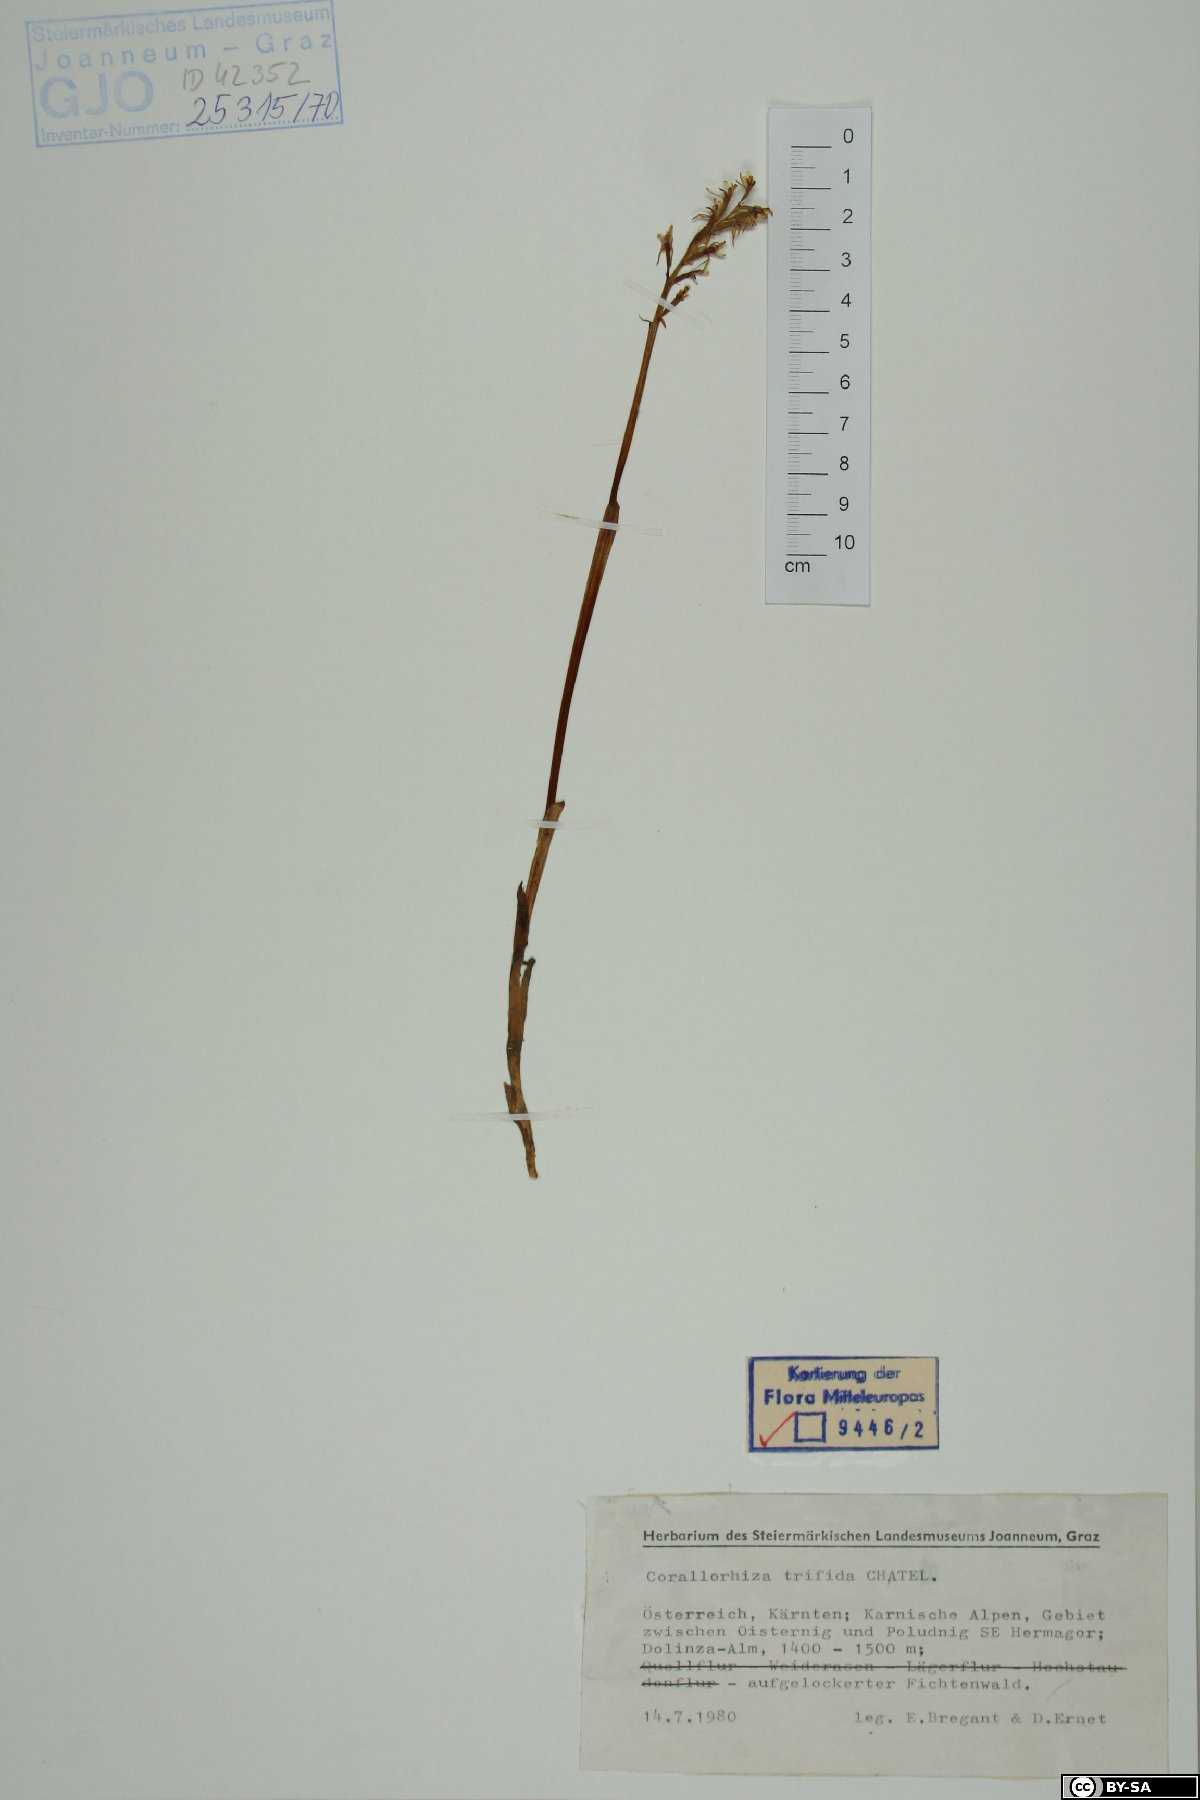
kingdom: Plantae
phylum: Tracheophyta
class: Liliopsida
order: Asparagales
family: Orchidaceae
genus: Corallorhiza
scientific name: Corallorhiza trifida
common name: Yellow coralroot
